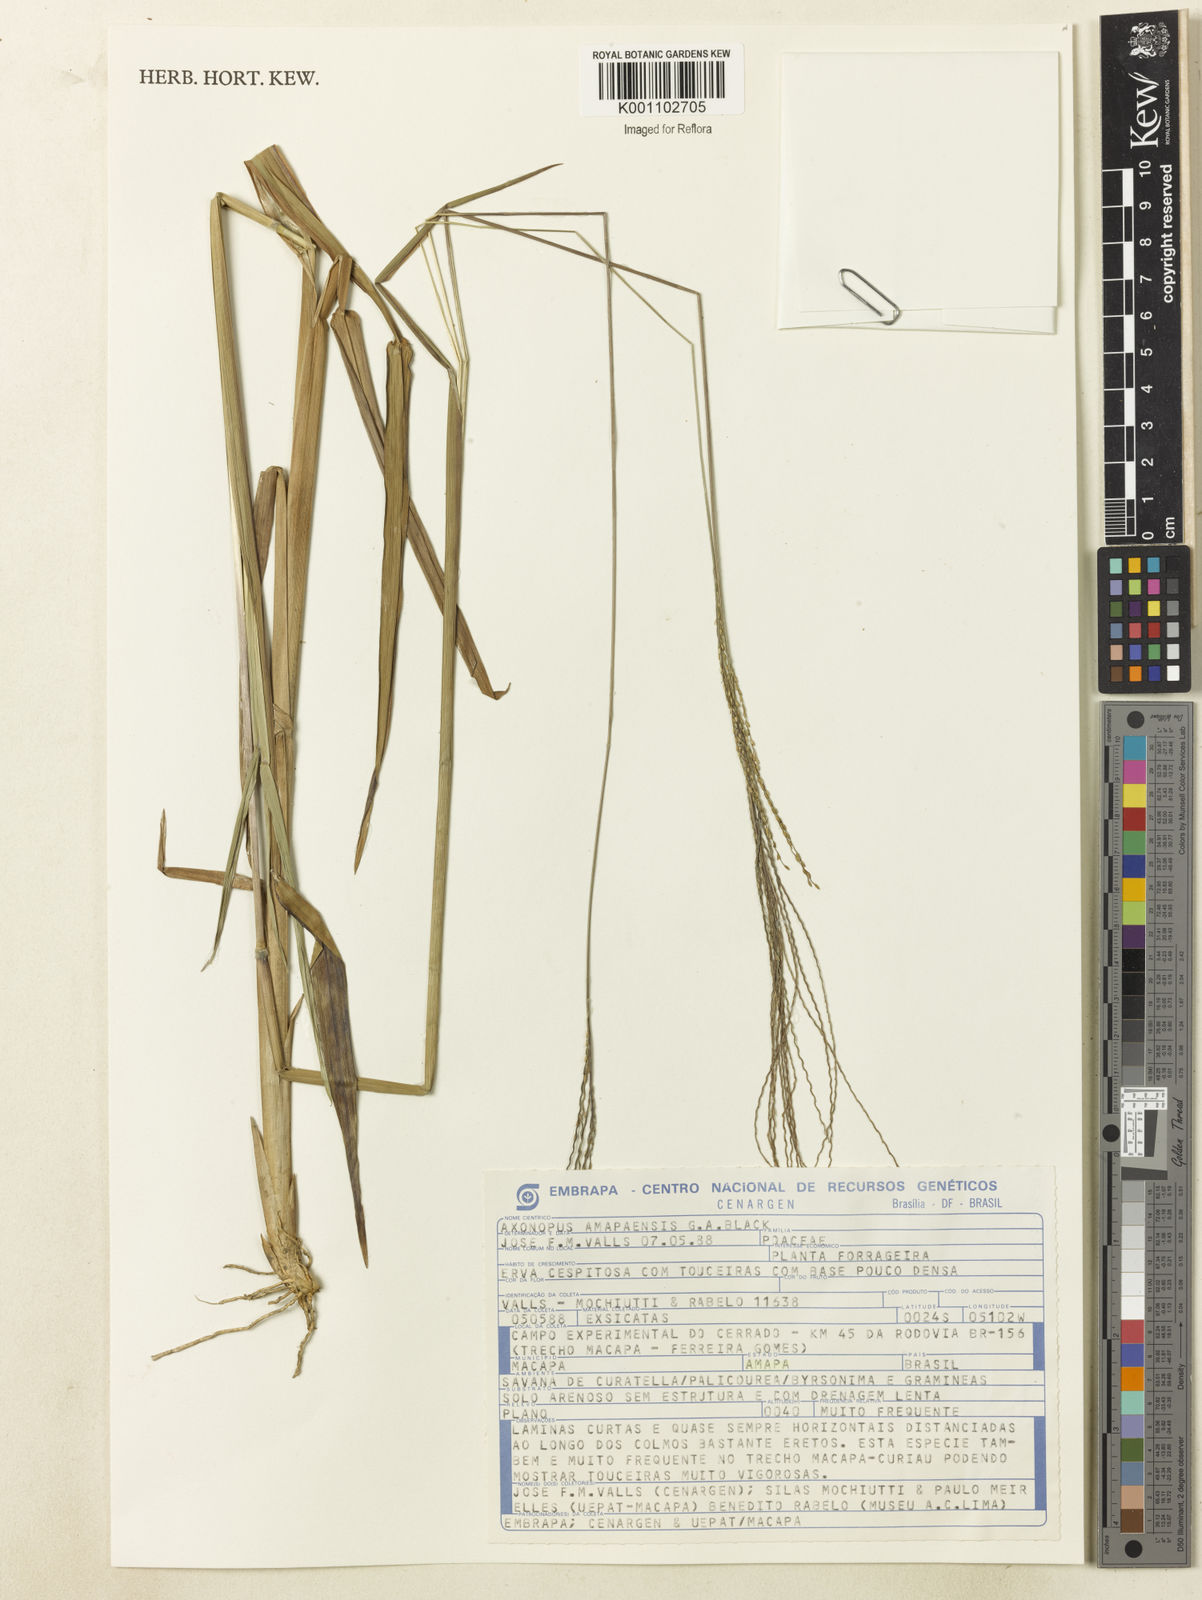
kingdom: Plantae
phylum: Tracheophyta
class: Liliopsida
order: Poales
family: Poaceae
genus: Axonopus
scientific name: Axonopus amapaensis
